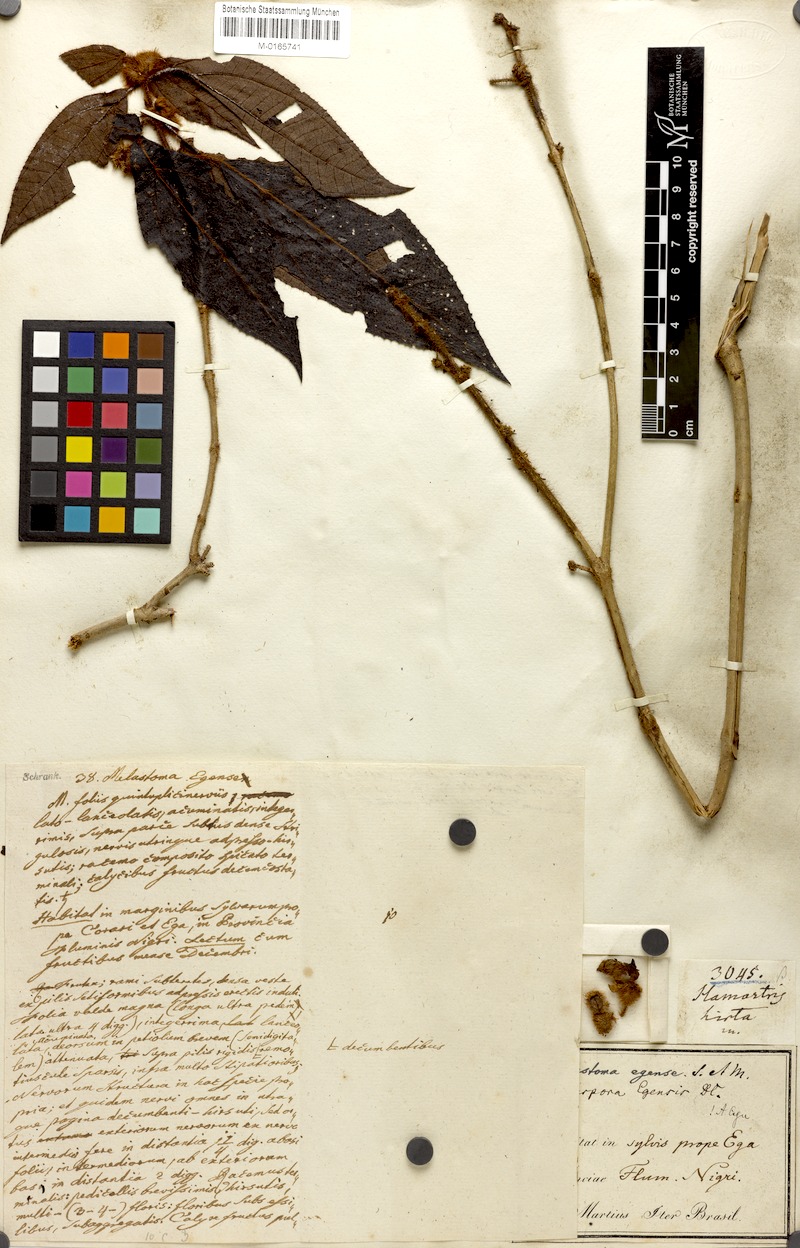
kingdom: Plantae
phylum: Tracheophyta
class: Magnoliopsida
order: Myrtales
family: Melastomataceae
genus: Bellucia
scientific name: Bellucia egensis
